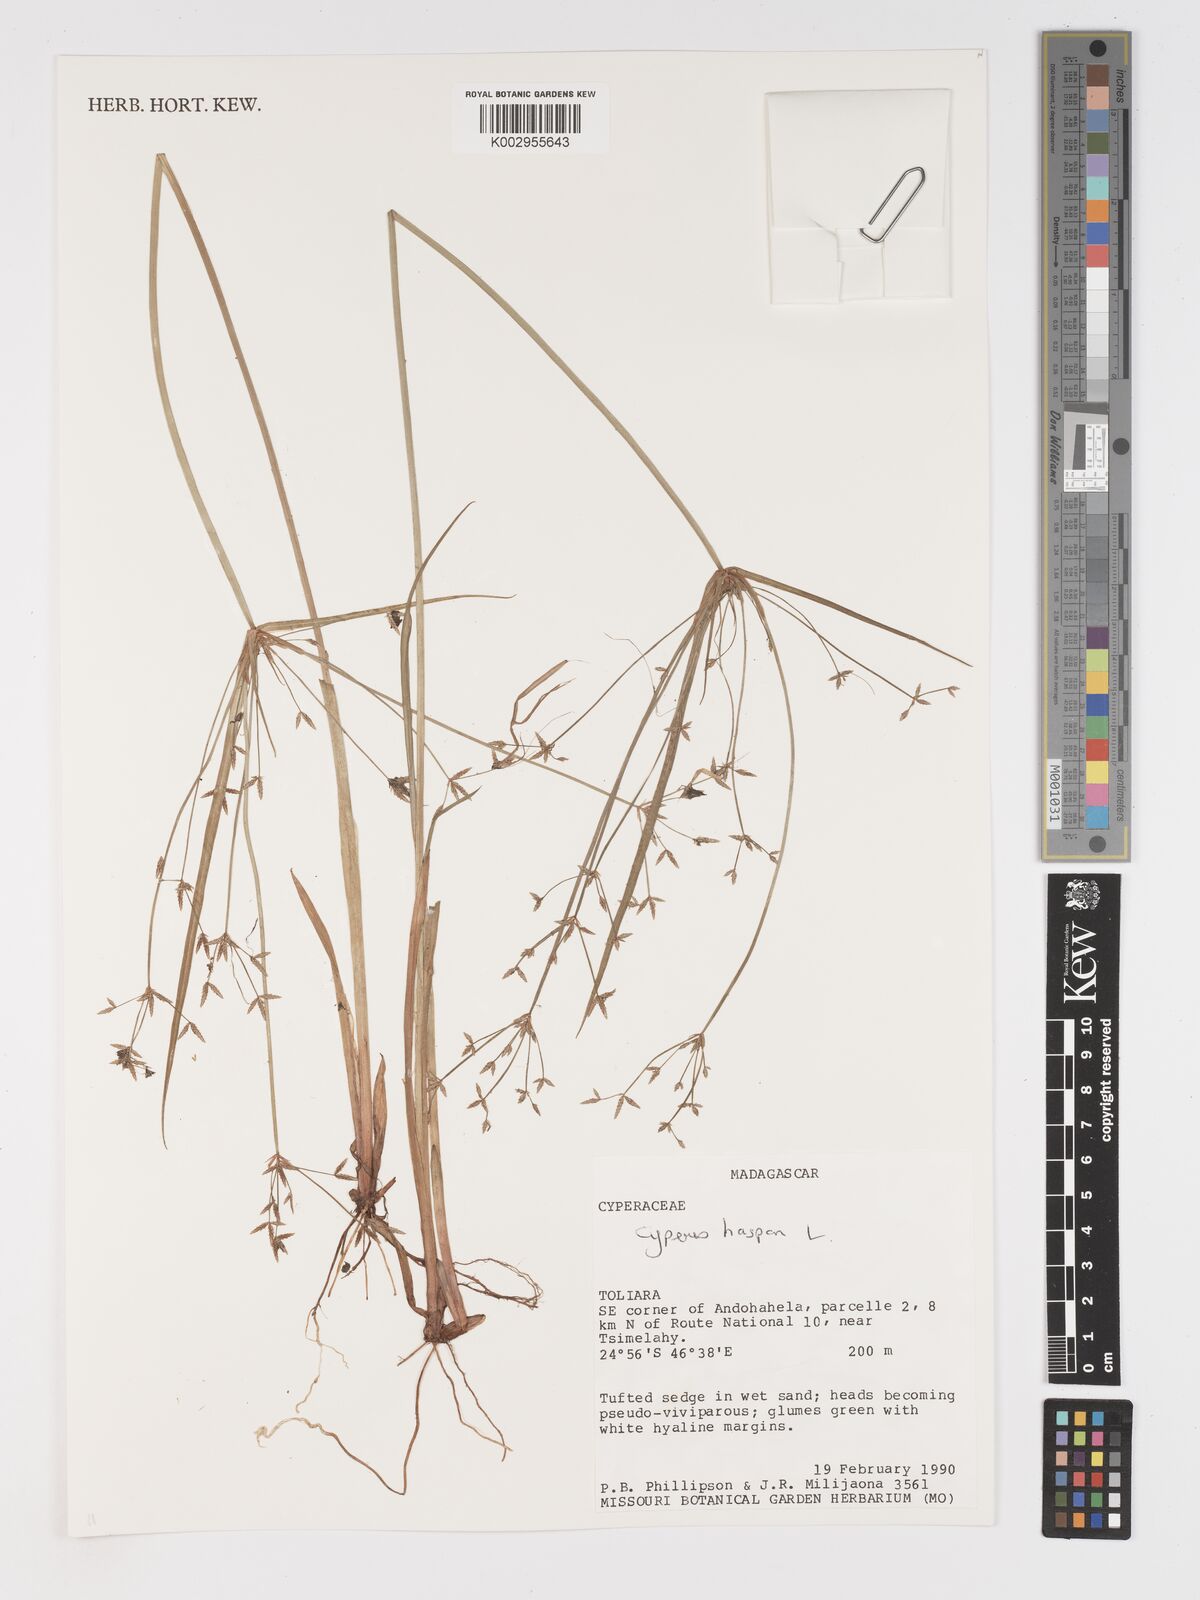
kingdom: Plantae
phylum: Tracheophyta
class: Liliopsida
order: Poales
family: Cyperaceae
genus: Cyperus
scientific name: Cyperus haspan
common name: Haspan flatsedge
